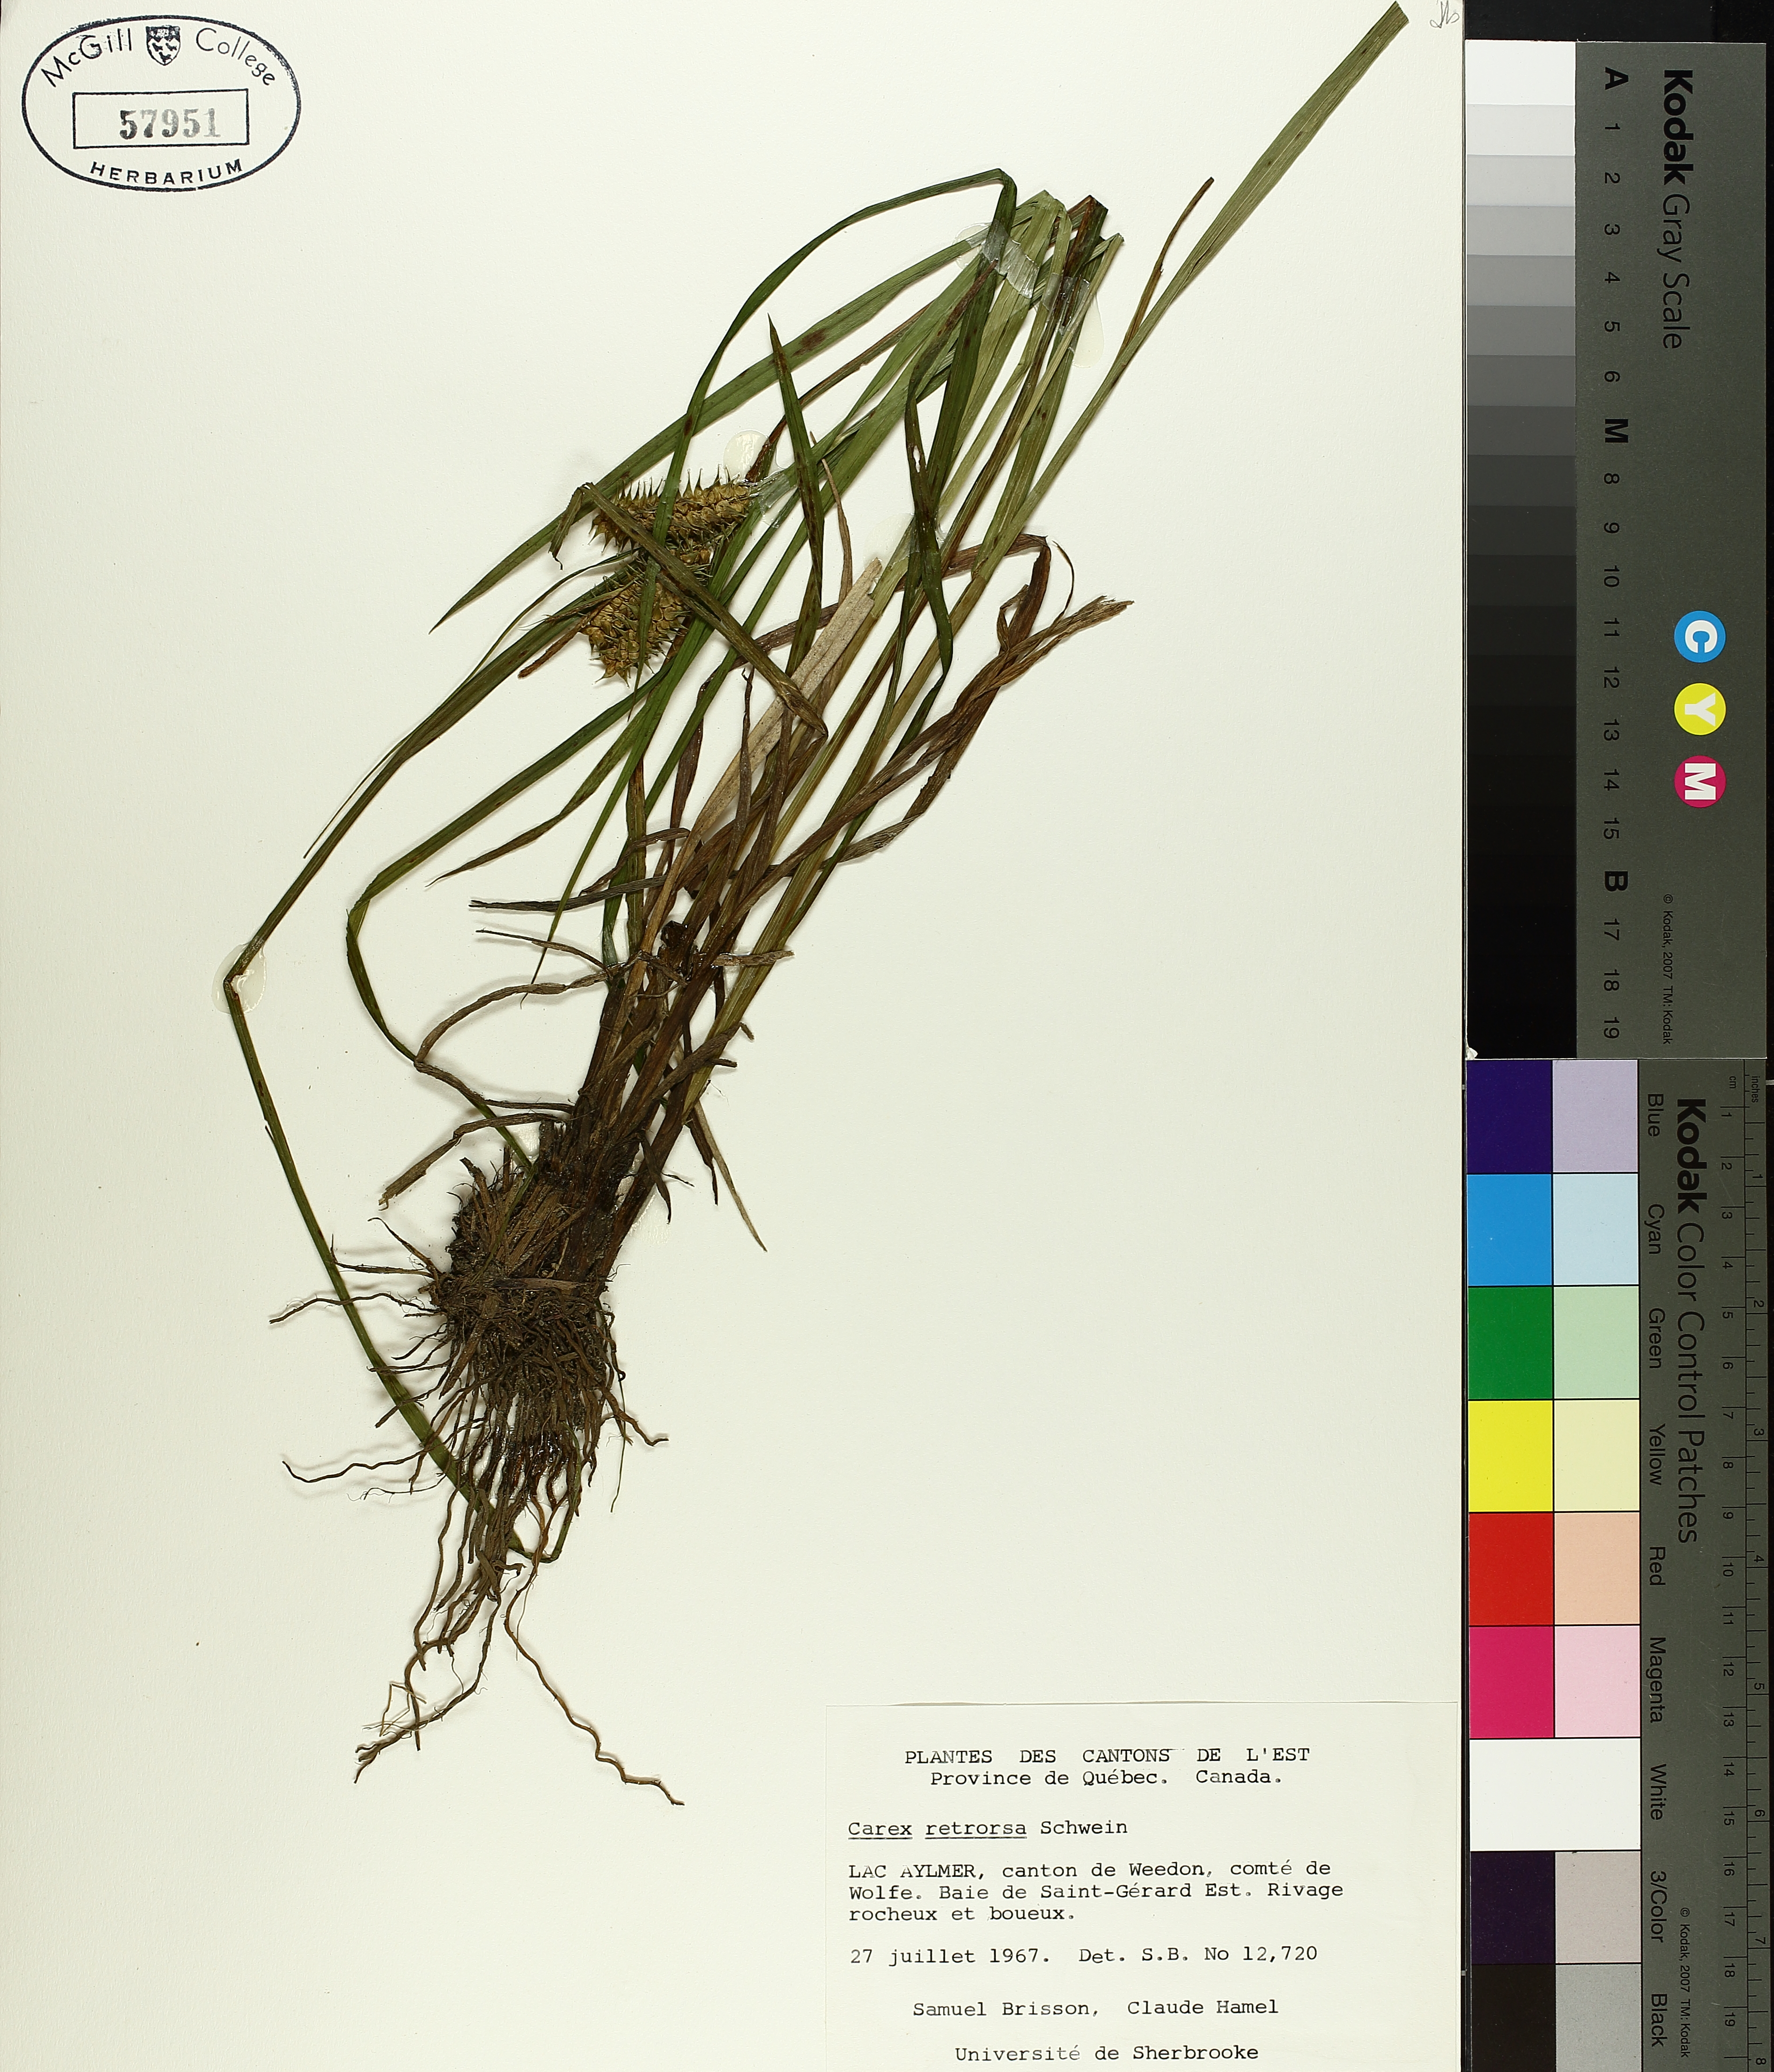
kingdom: Plantae
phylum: Tracheophyta
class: Liliopsida
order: Poales
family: Cyperaceae
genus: Carex
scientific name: Carex retrorsa
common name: Knot-sheath sedge
